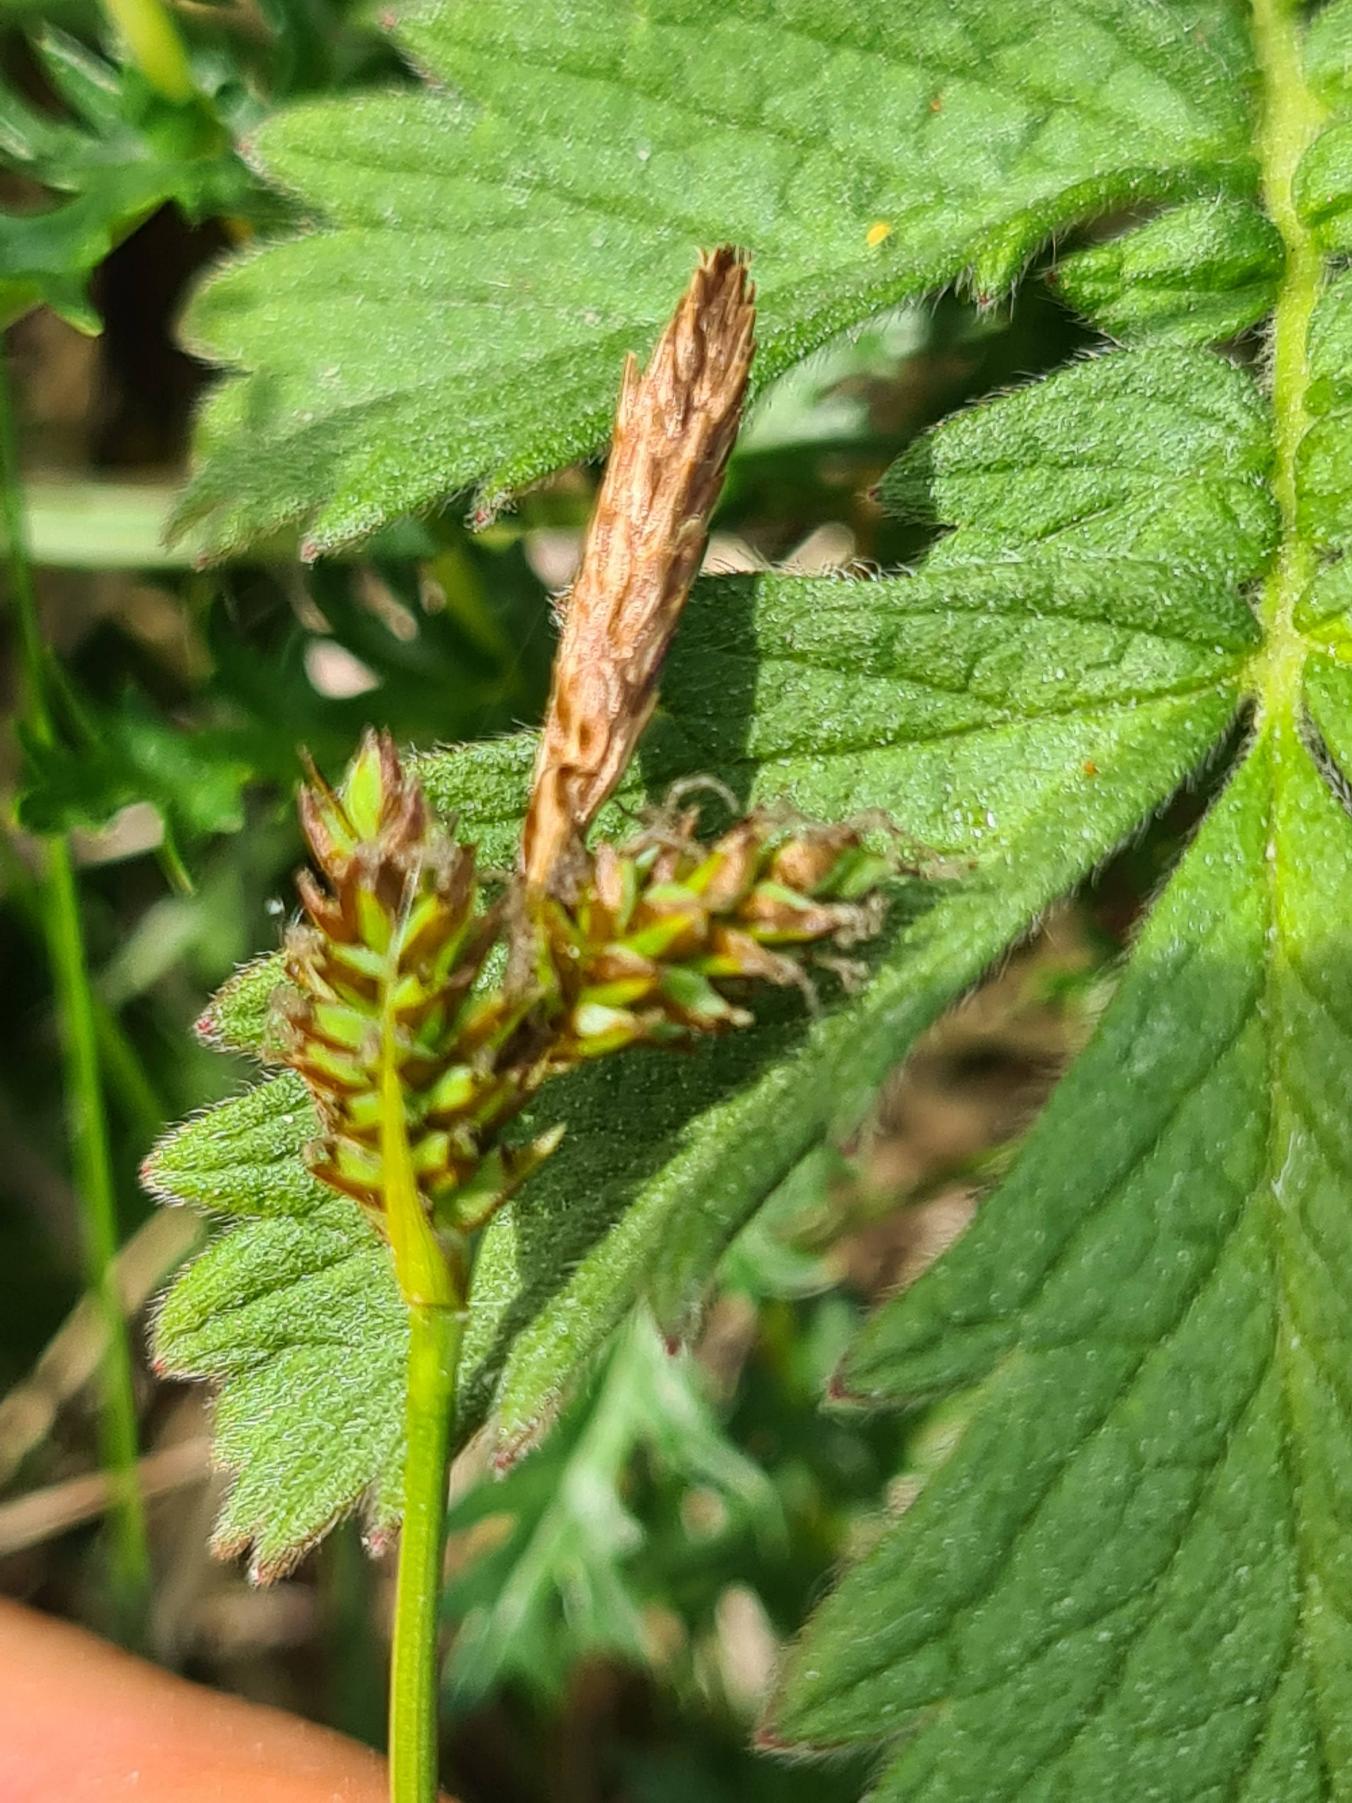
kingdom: Plantae
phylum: Tracheophyta
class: Liliopsida
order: Poales
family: Cyperaceae
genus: Carex
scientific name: Carex caryophyllea
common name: Vår-star
